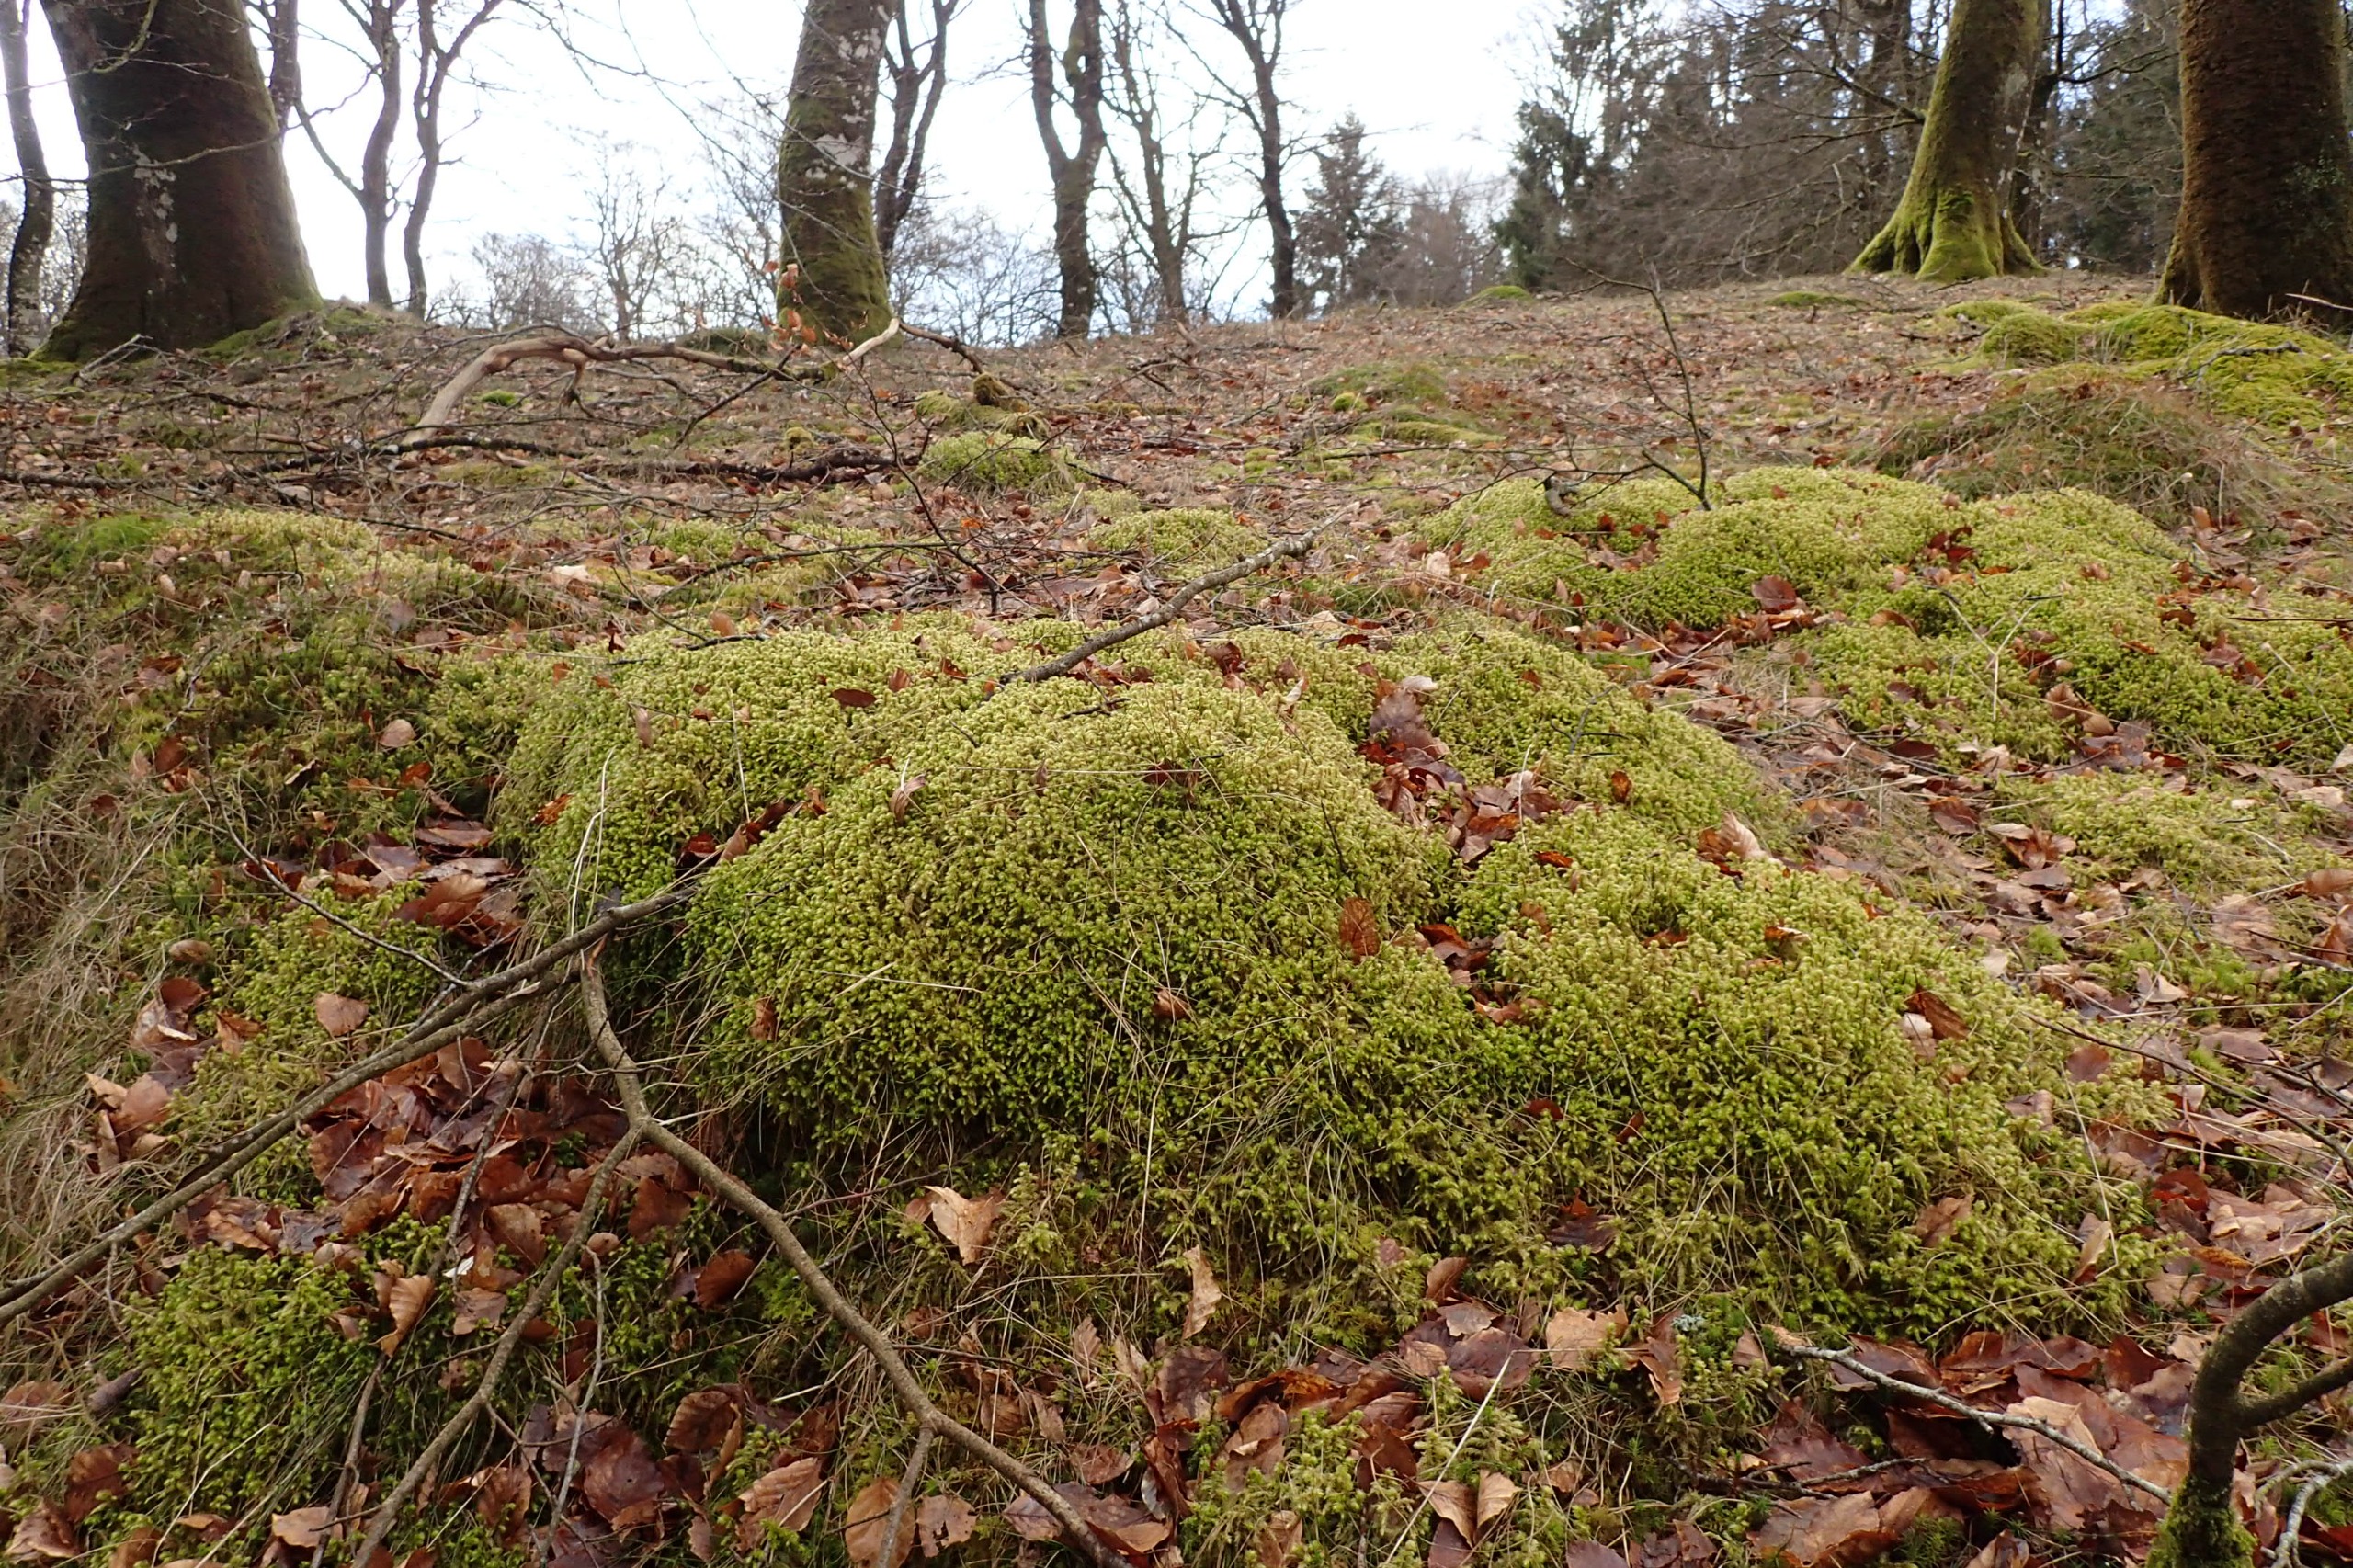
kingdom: Plantae
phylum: Bryophyta
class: Bryopsida
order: Hypnales
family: Hylocomiaceae
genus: Hylocomiadelphus
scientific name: Hylocomiadelphus triquetrus
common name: Stor kransemos
